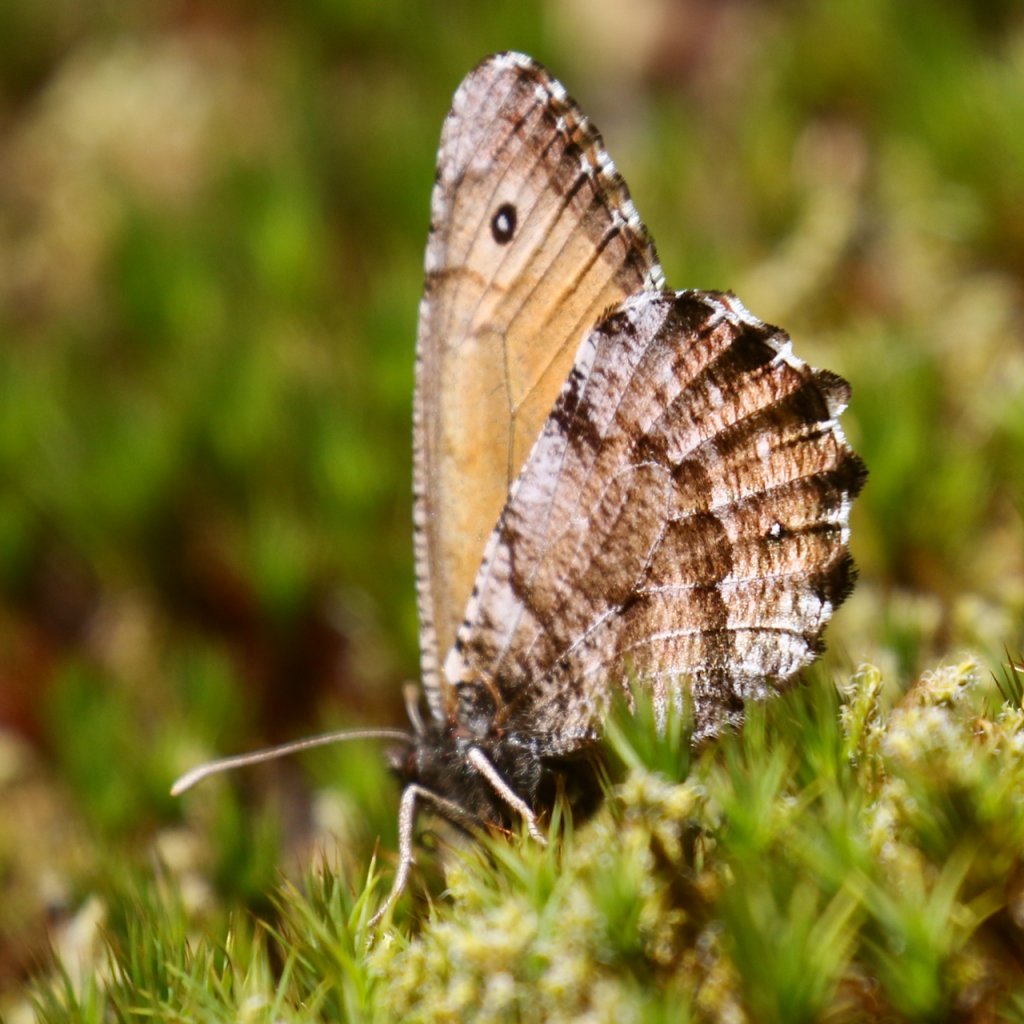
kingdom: Animalia
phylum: Arthropoda
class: Insecta
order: Lepidoptera
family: Nymphalidae
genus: Oeneis
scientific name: Oeneis nevadensis
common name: Great Arctic
